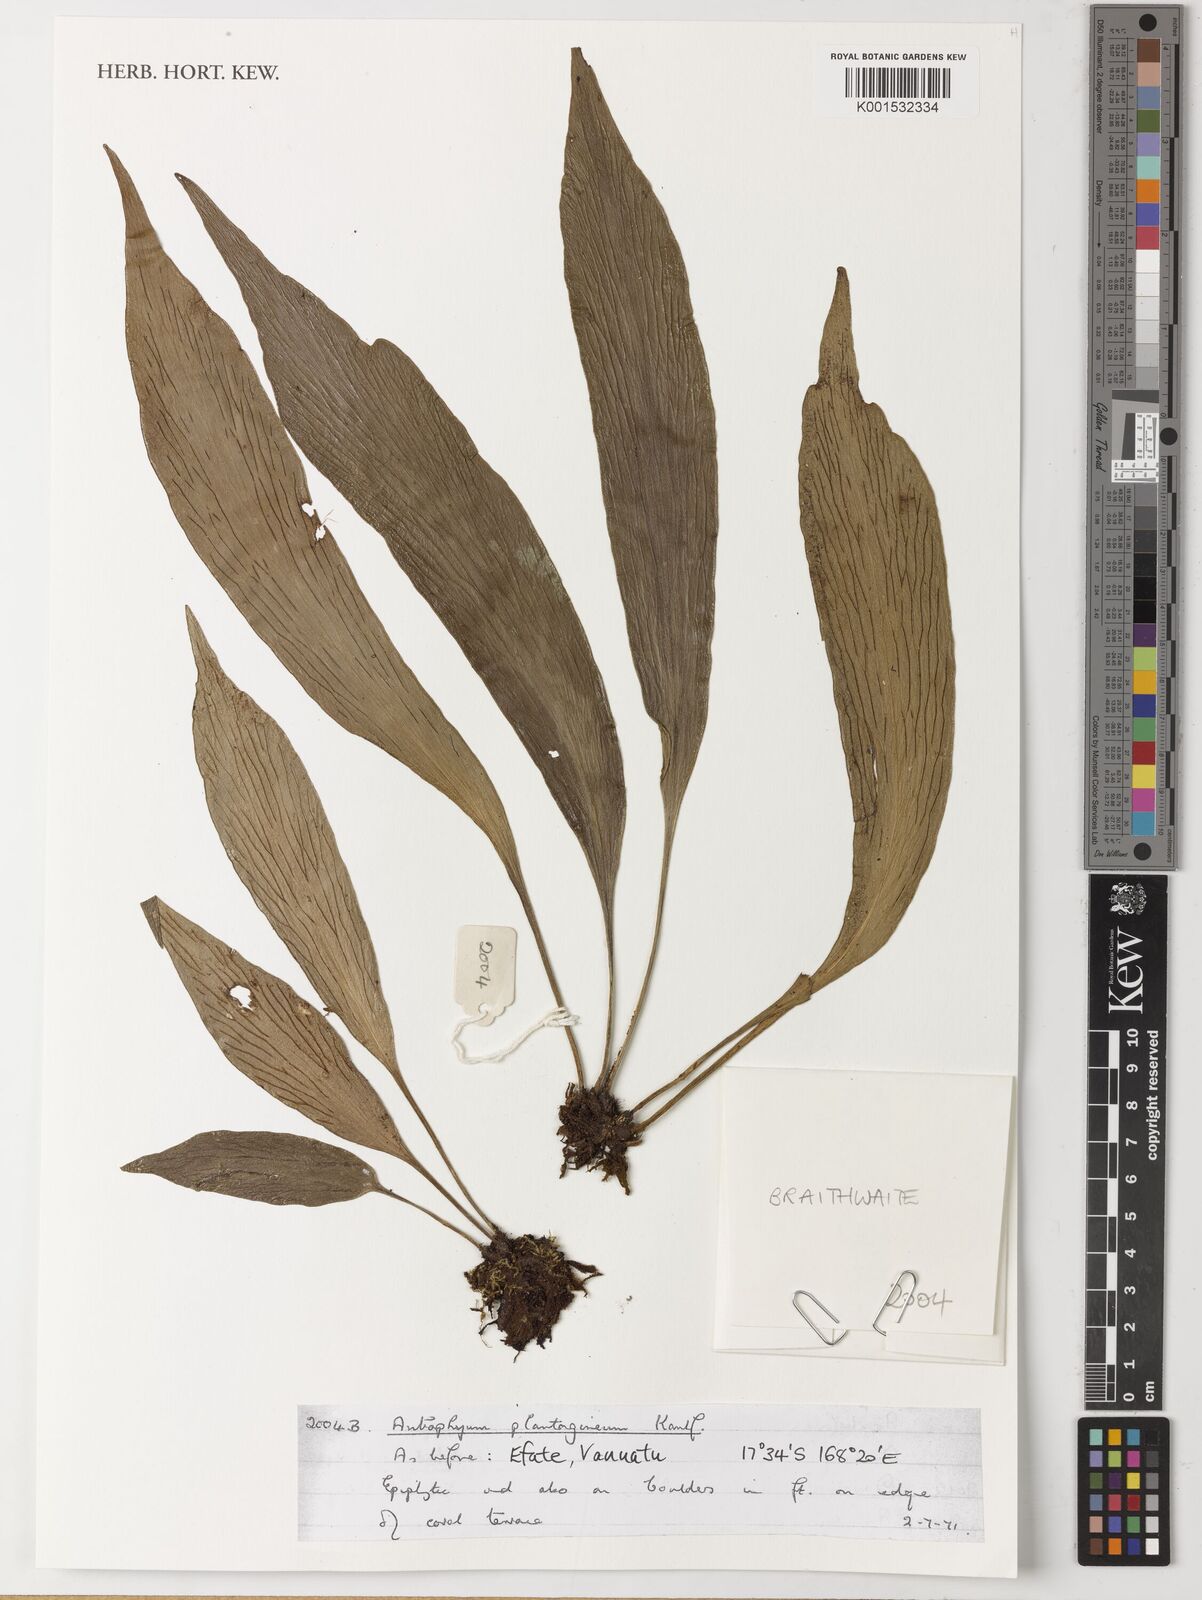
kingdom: Plantae
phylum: Tracheophyta
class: Polypodiopsida
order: Polypodiales
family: Pteridaceae
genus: Antrophyum
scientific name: Antrophyum plantagineum
